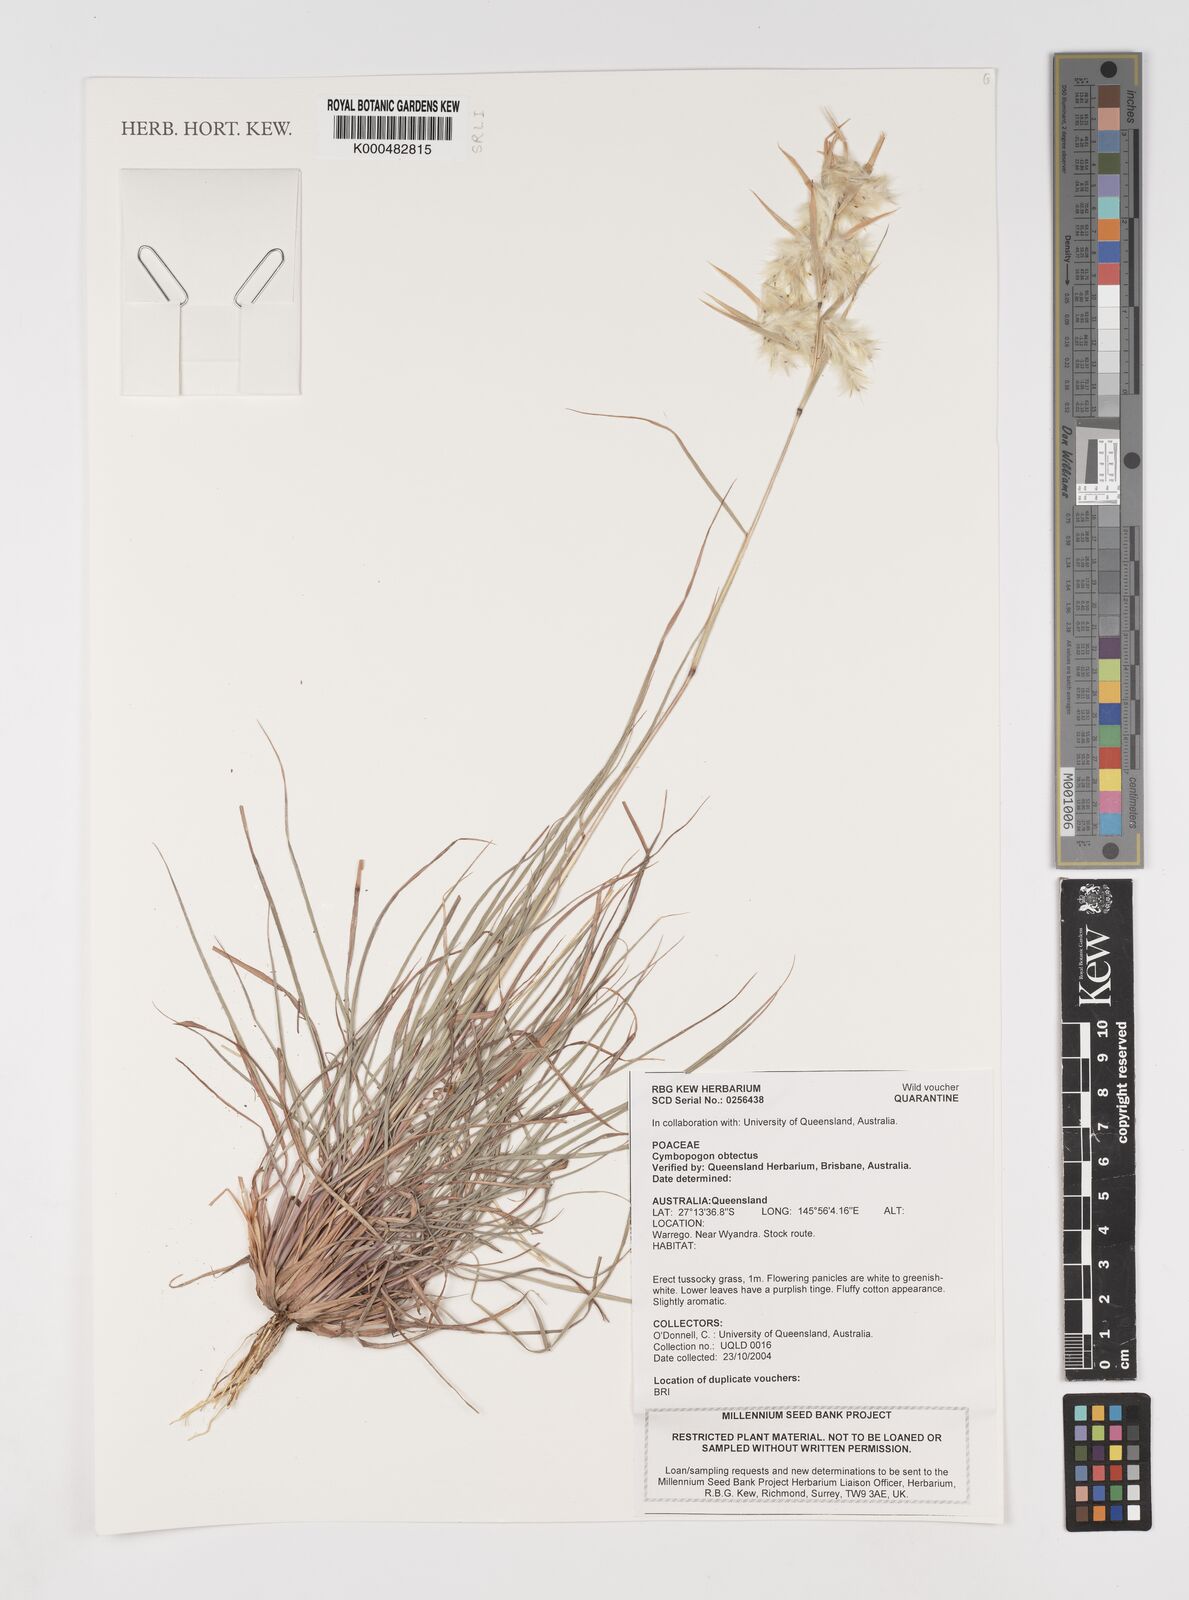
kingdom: Plantae
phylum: Tracheophyta
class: Liliopsida
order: Poales
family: Poaceae
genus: Cymbopogon
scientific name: Cymbopogon obtectus
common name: Silky heads
